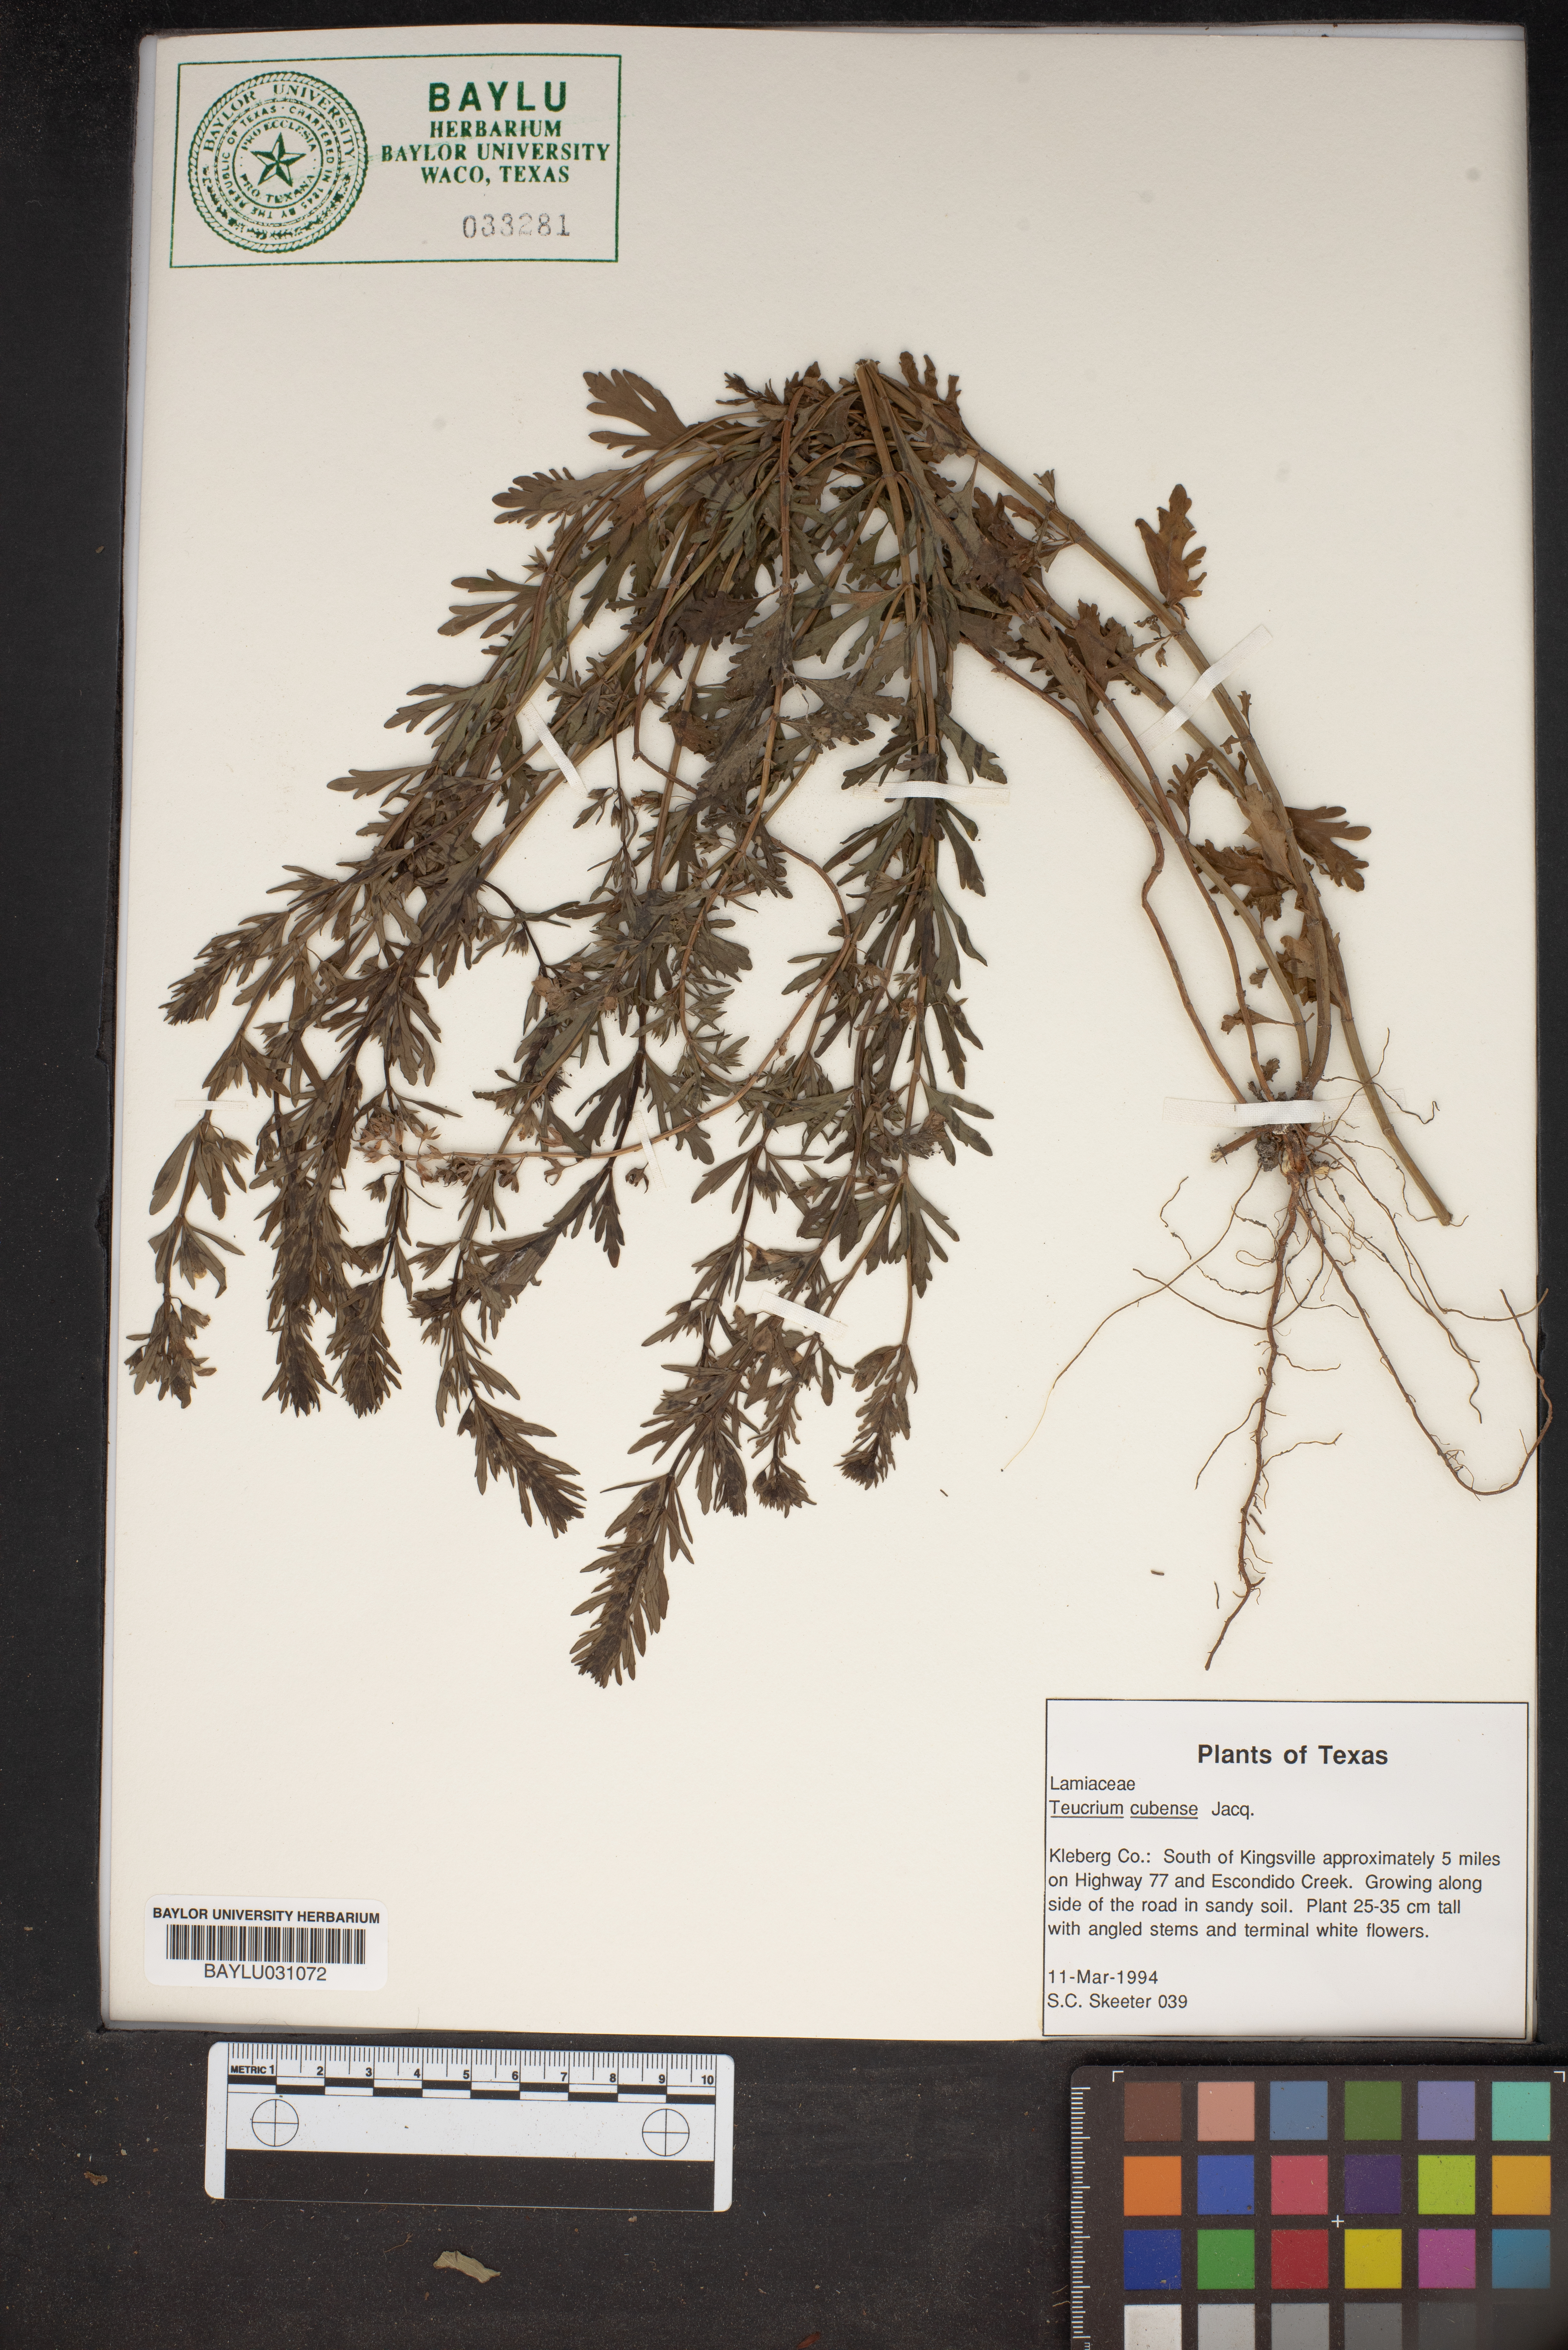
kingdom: Plantae
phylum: Tracheophyta
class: Magnoliopsida
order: Lamiales
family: Lamiaceae
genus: Teucrium
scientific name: Teucrium cubense
